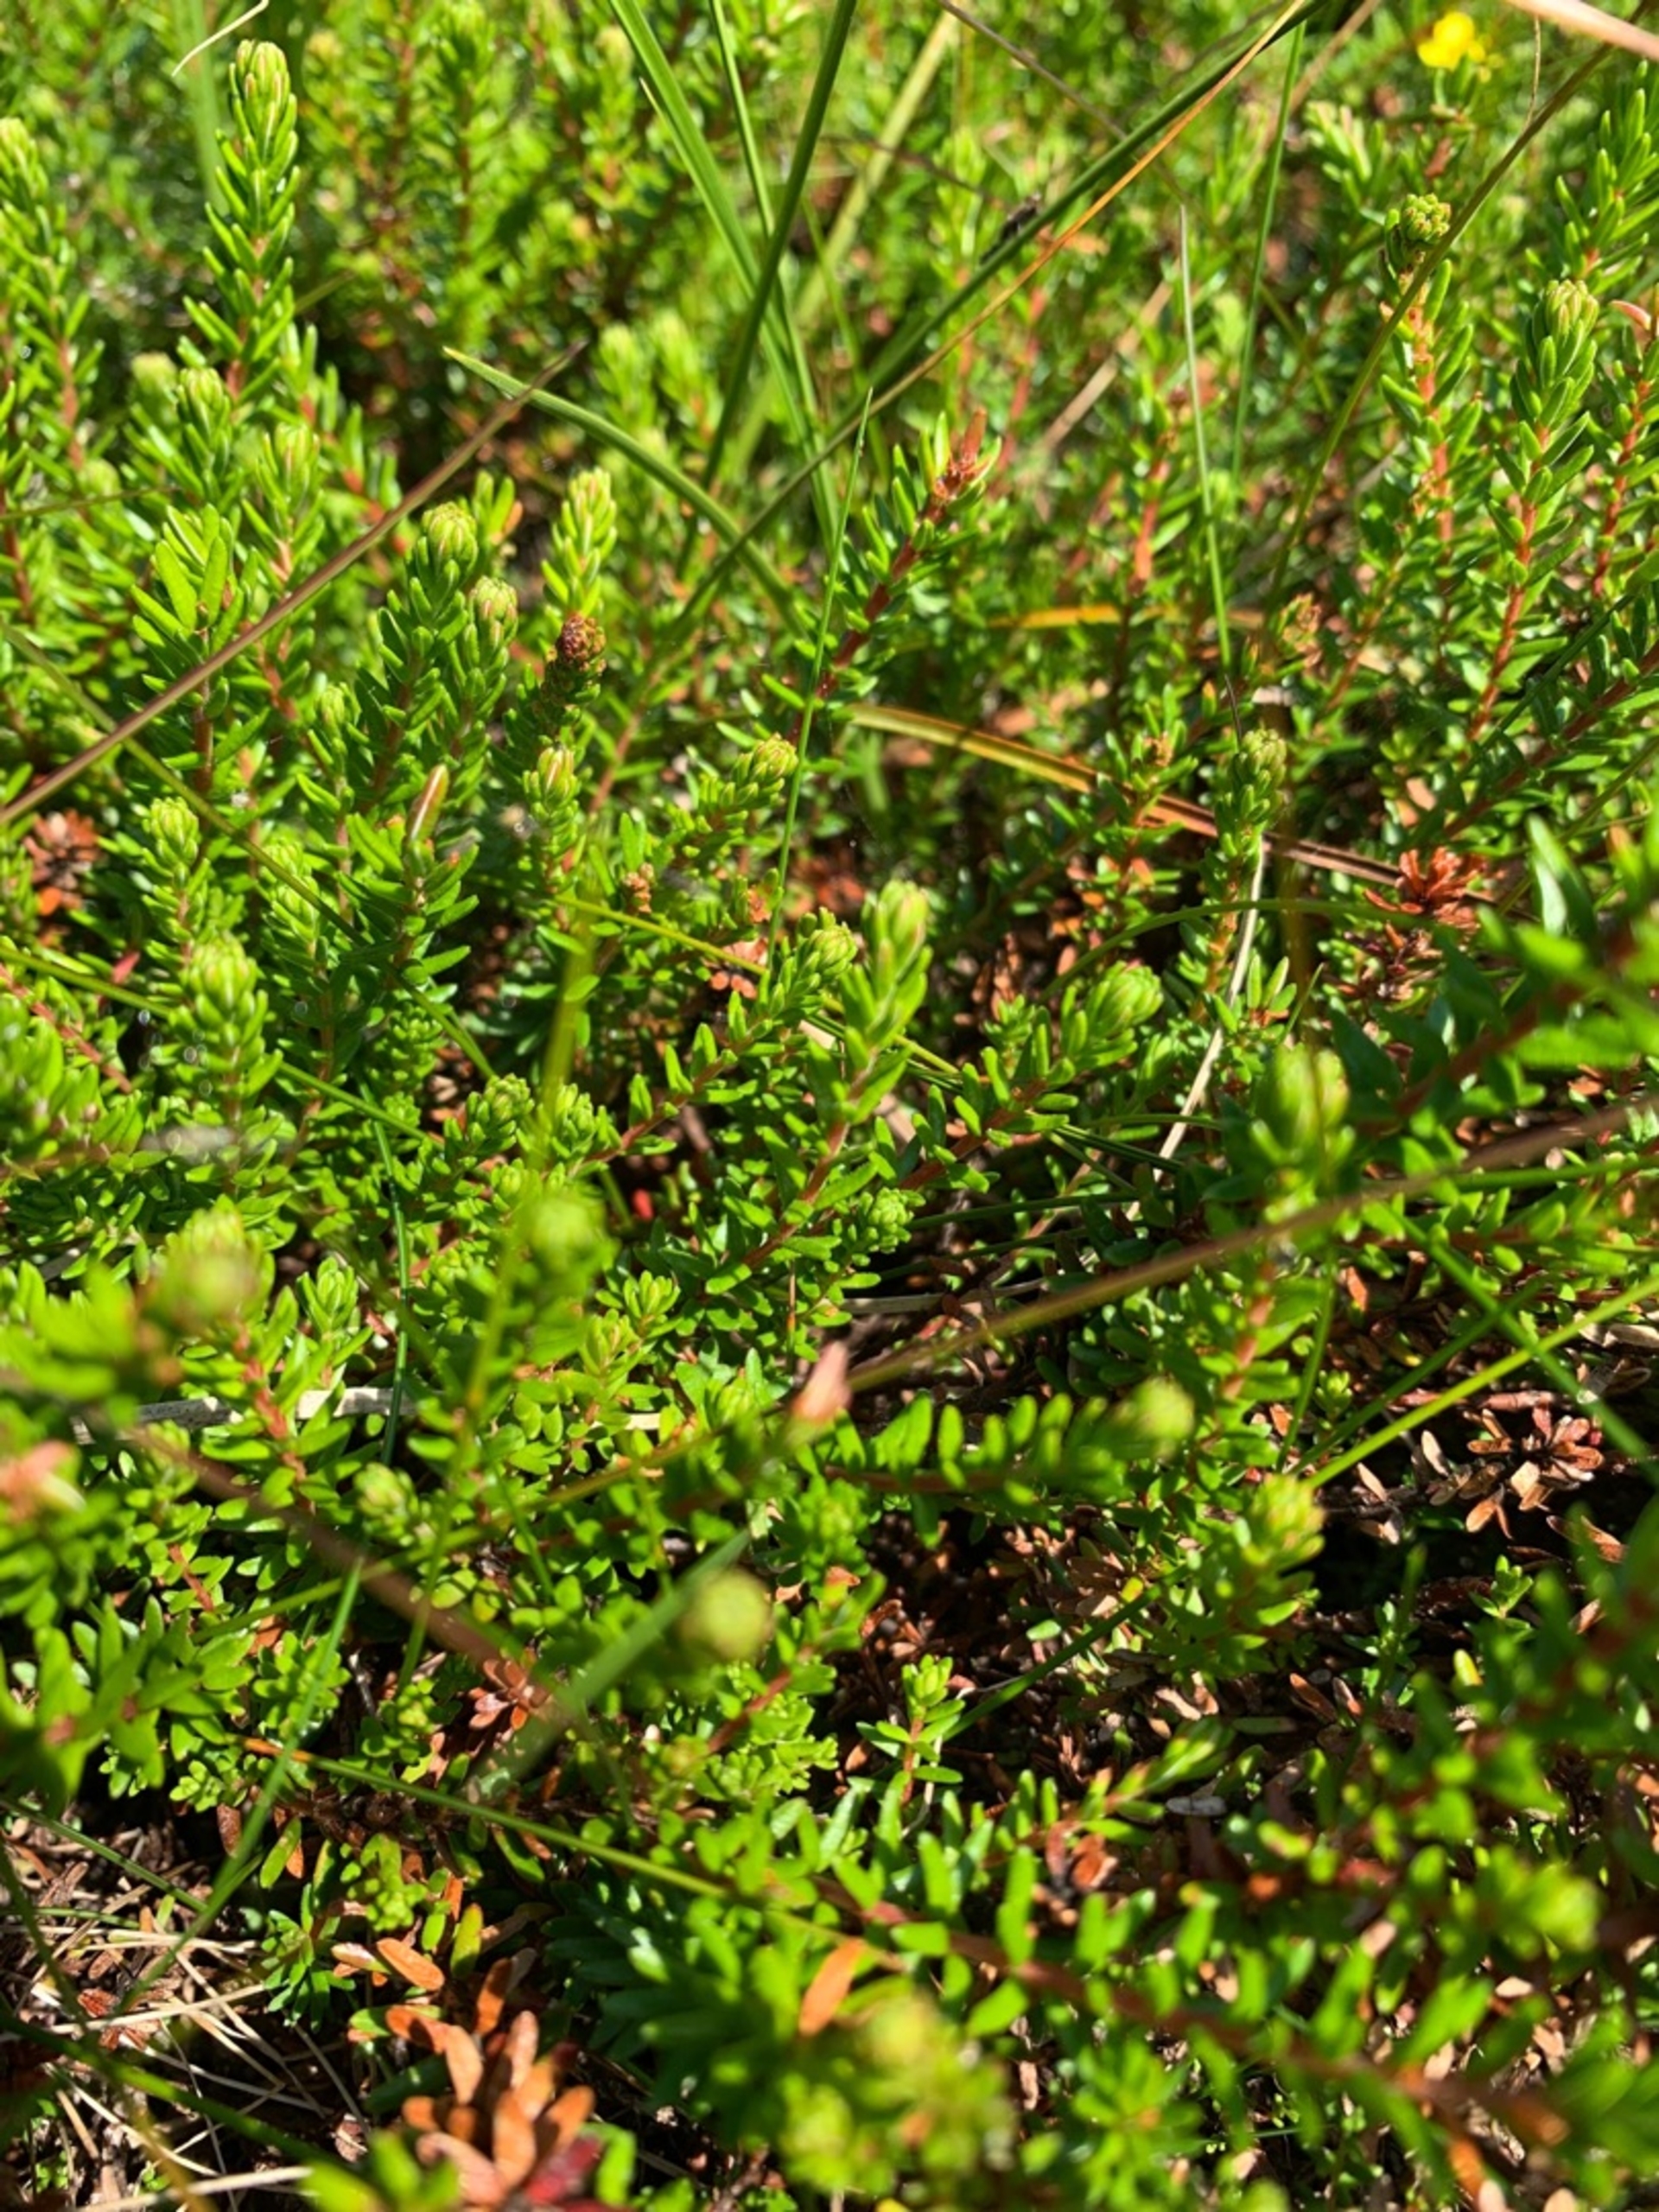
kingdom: Plantae
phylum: Tracheophyta
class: Magnoliopsida
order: Ericales
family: Ericaceae
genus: Empetrum
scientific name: Empetrum nigrum
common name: Revling
